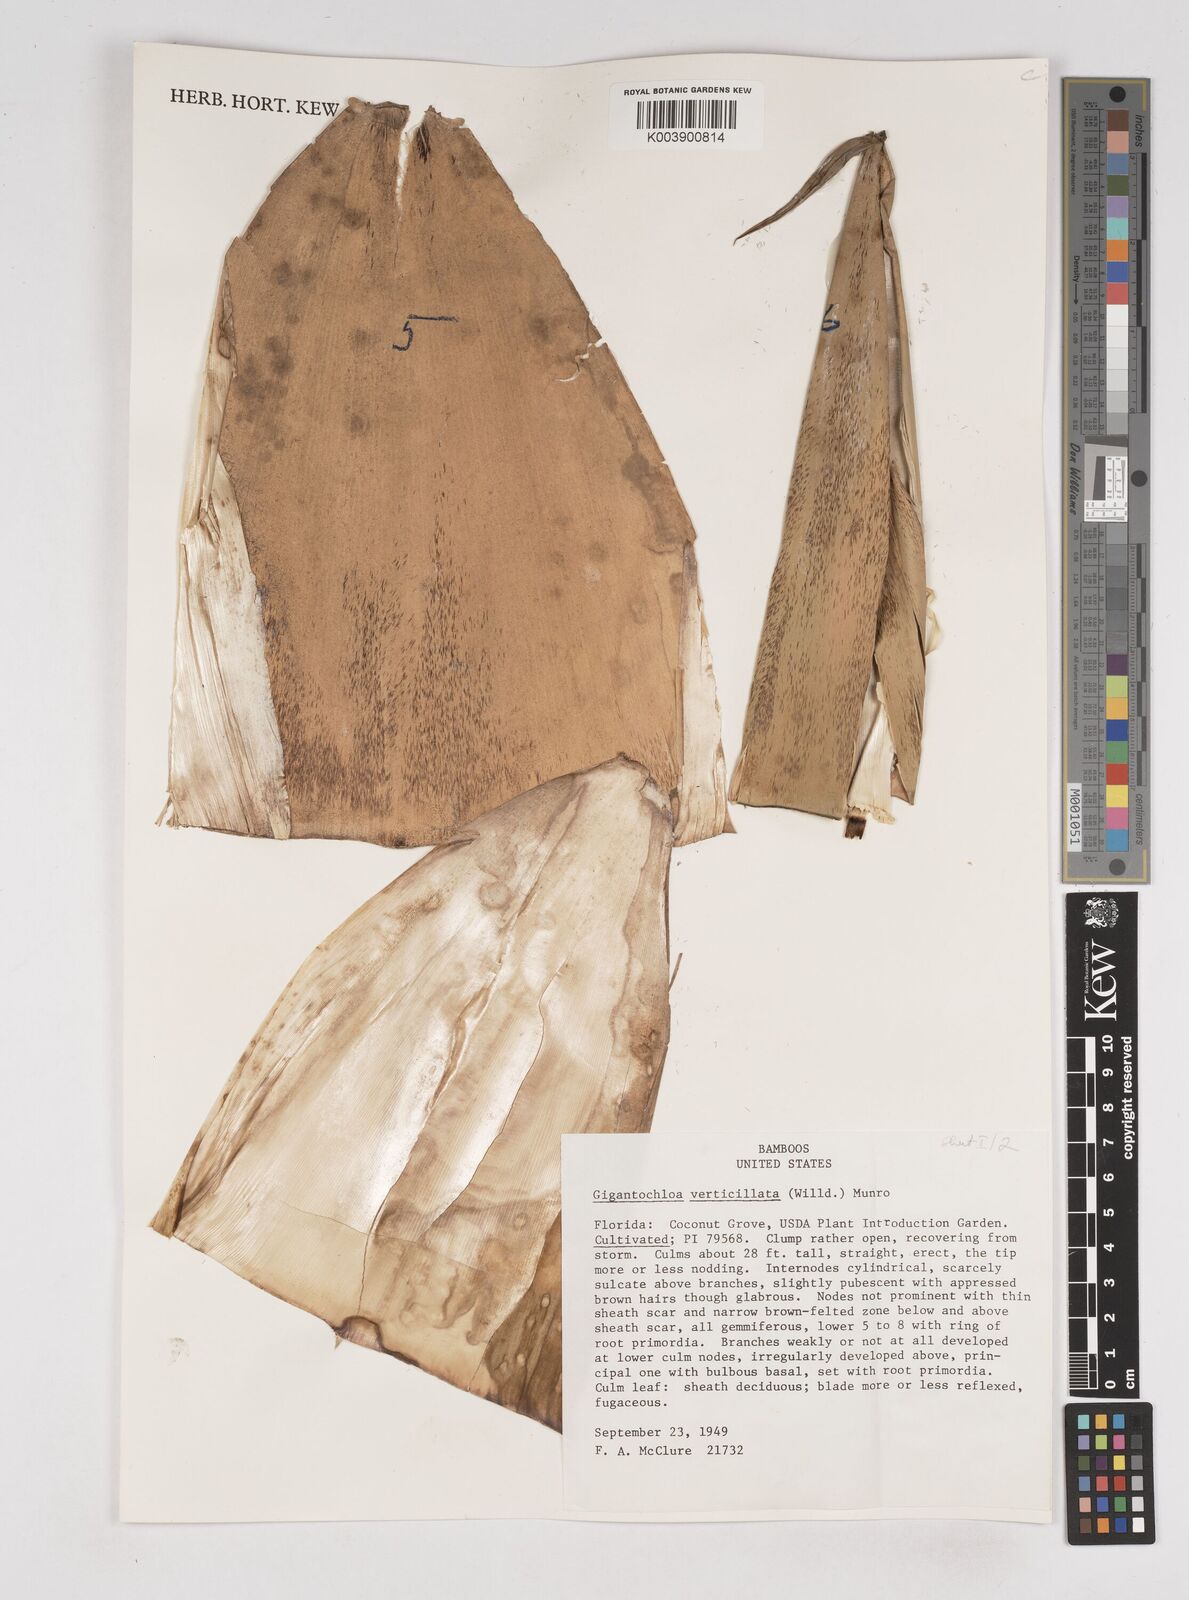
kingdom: Plantae
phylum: Tracheophyta
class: Liliopsida
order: Poales
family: Poaceae
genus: Gigantochloa
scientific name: Gigantochloa verticillata
